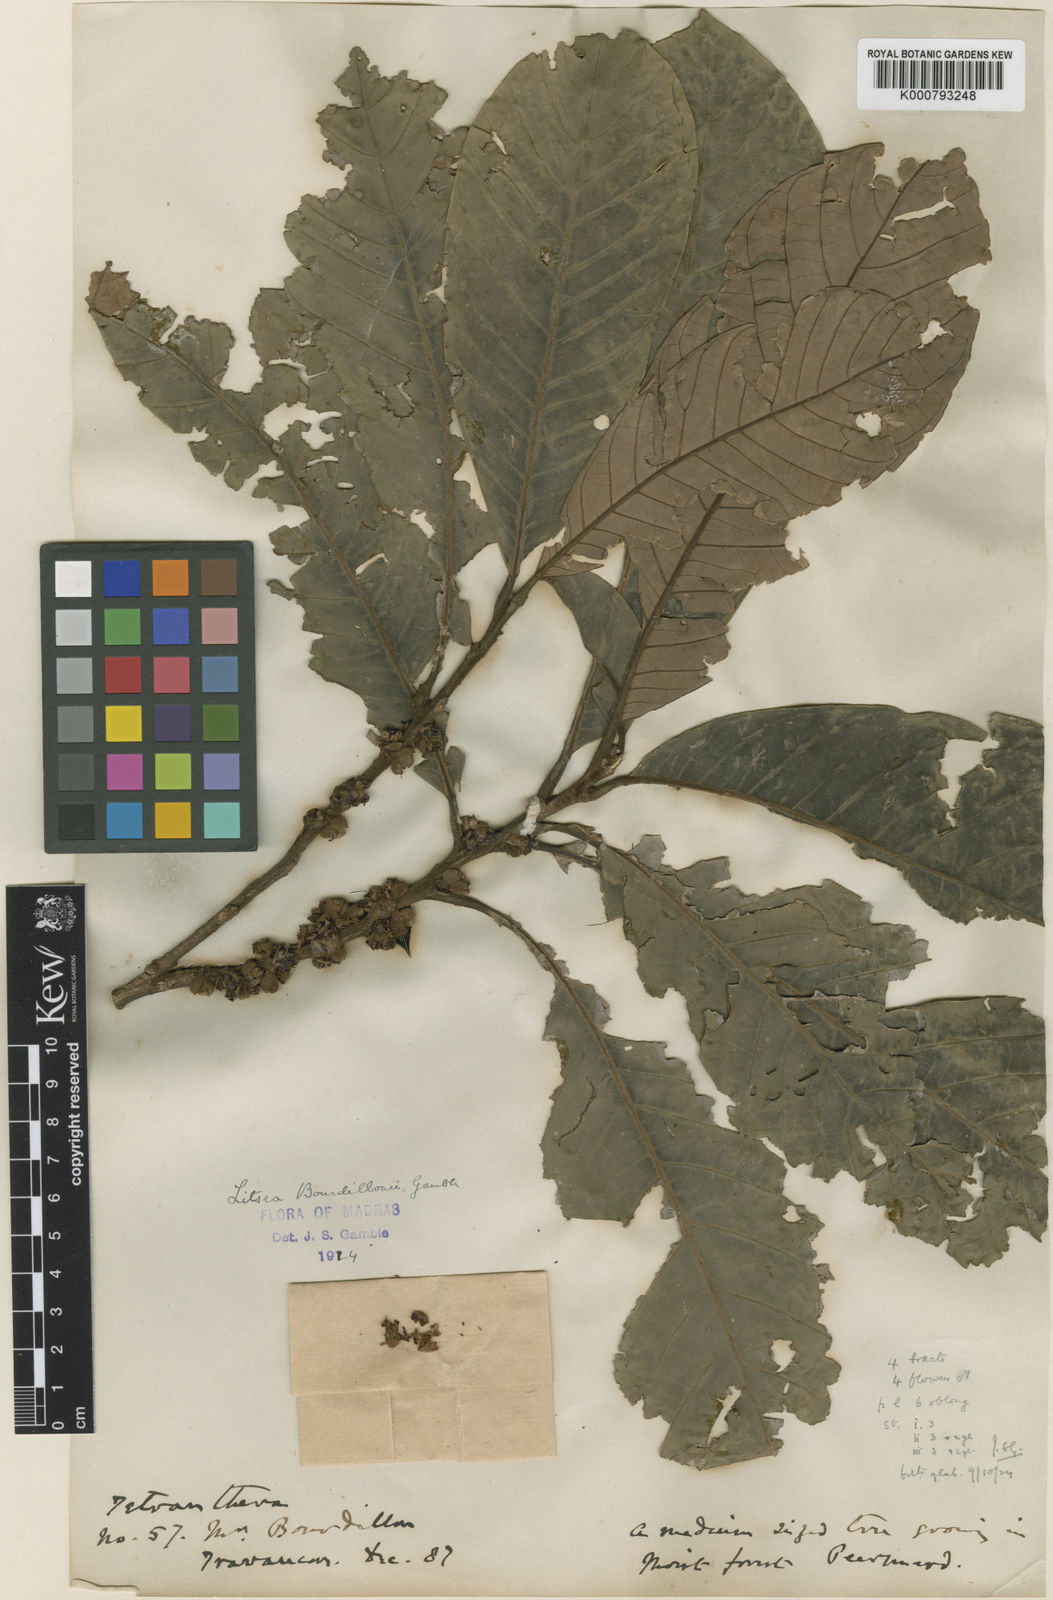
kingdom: Plantae
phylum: Tracheophyta
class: Magnoliopsida
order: Laurales
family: Lauraceae
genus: Litsea
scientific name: Litsea bourdillonii
